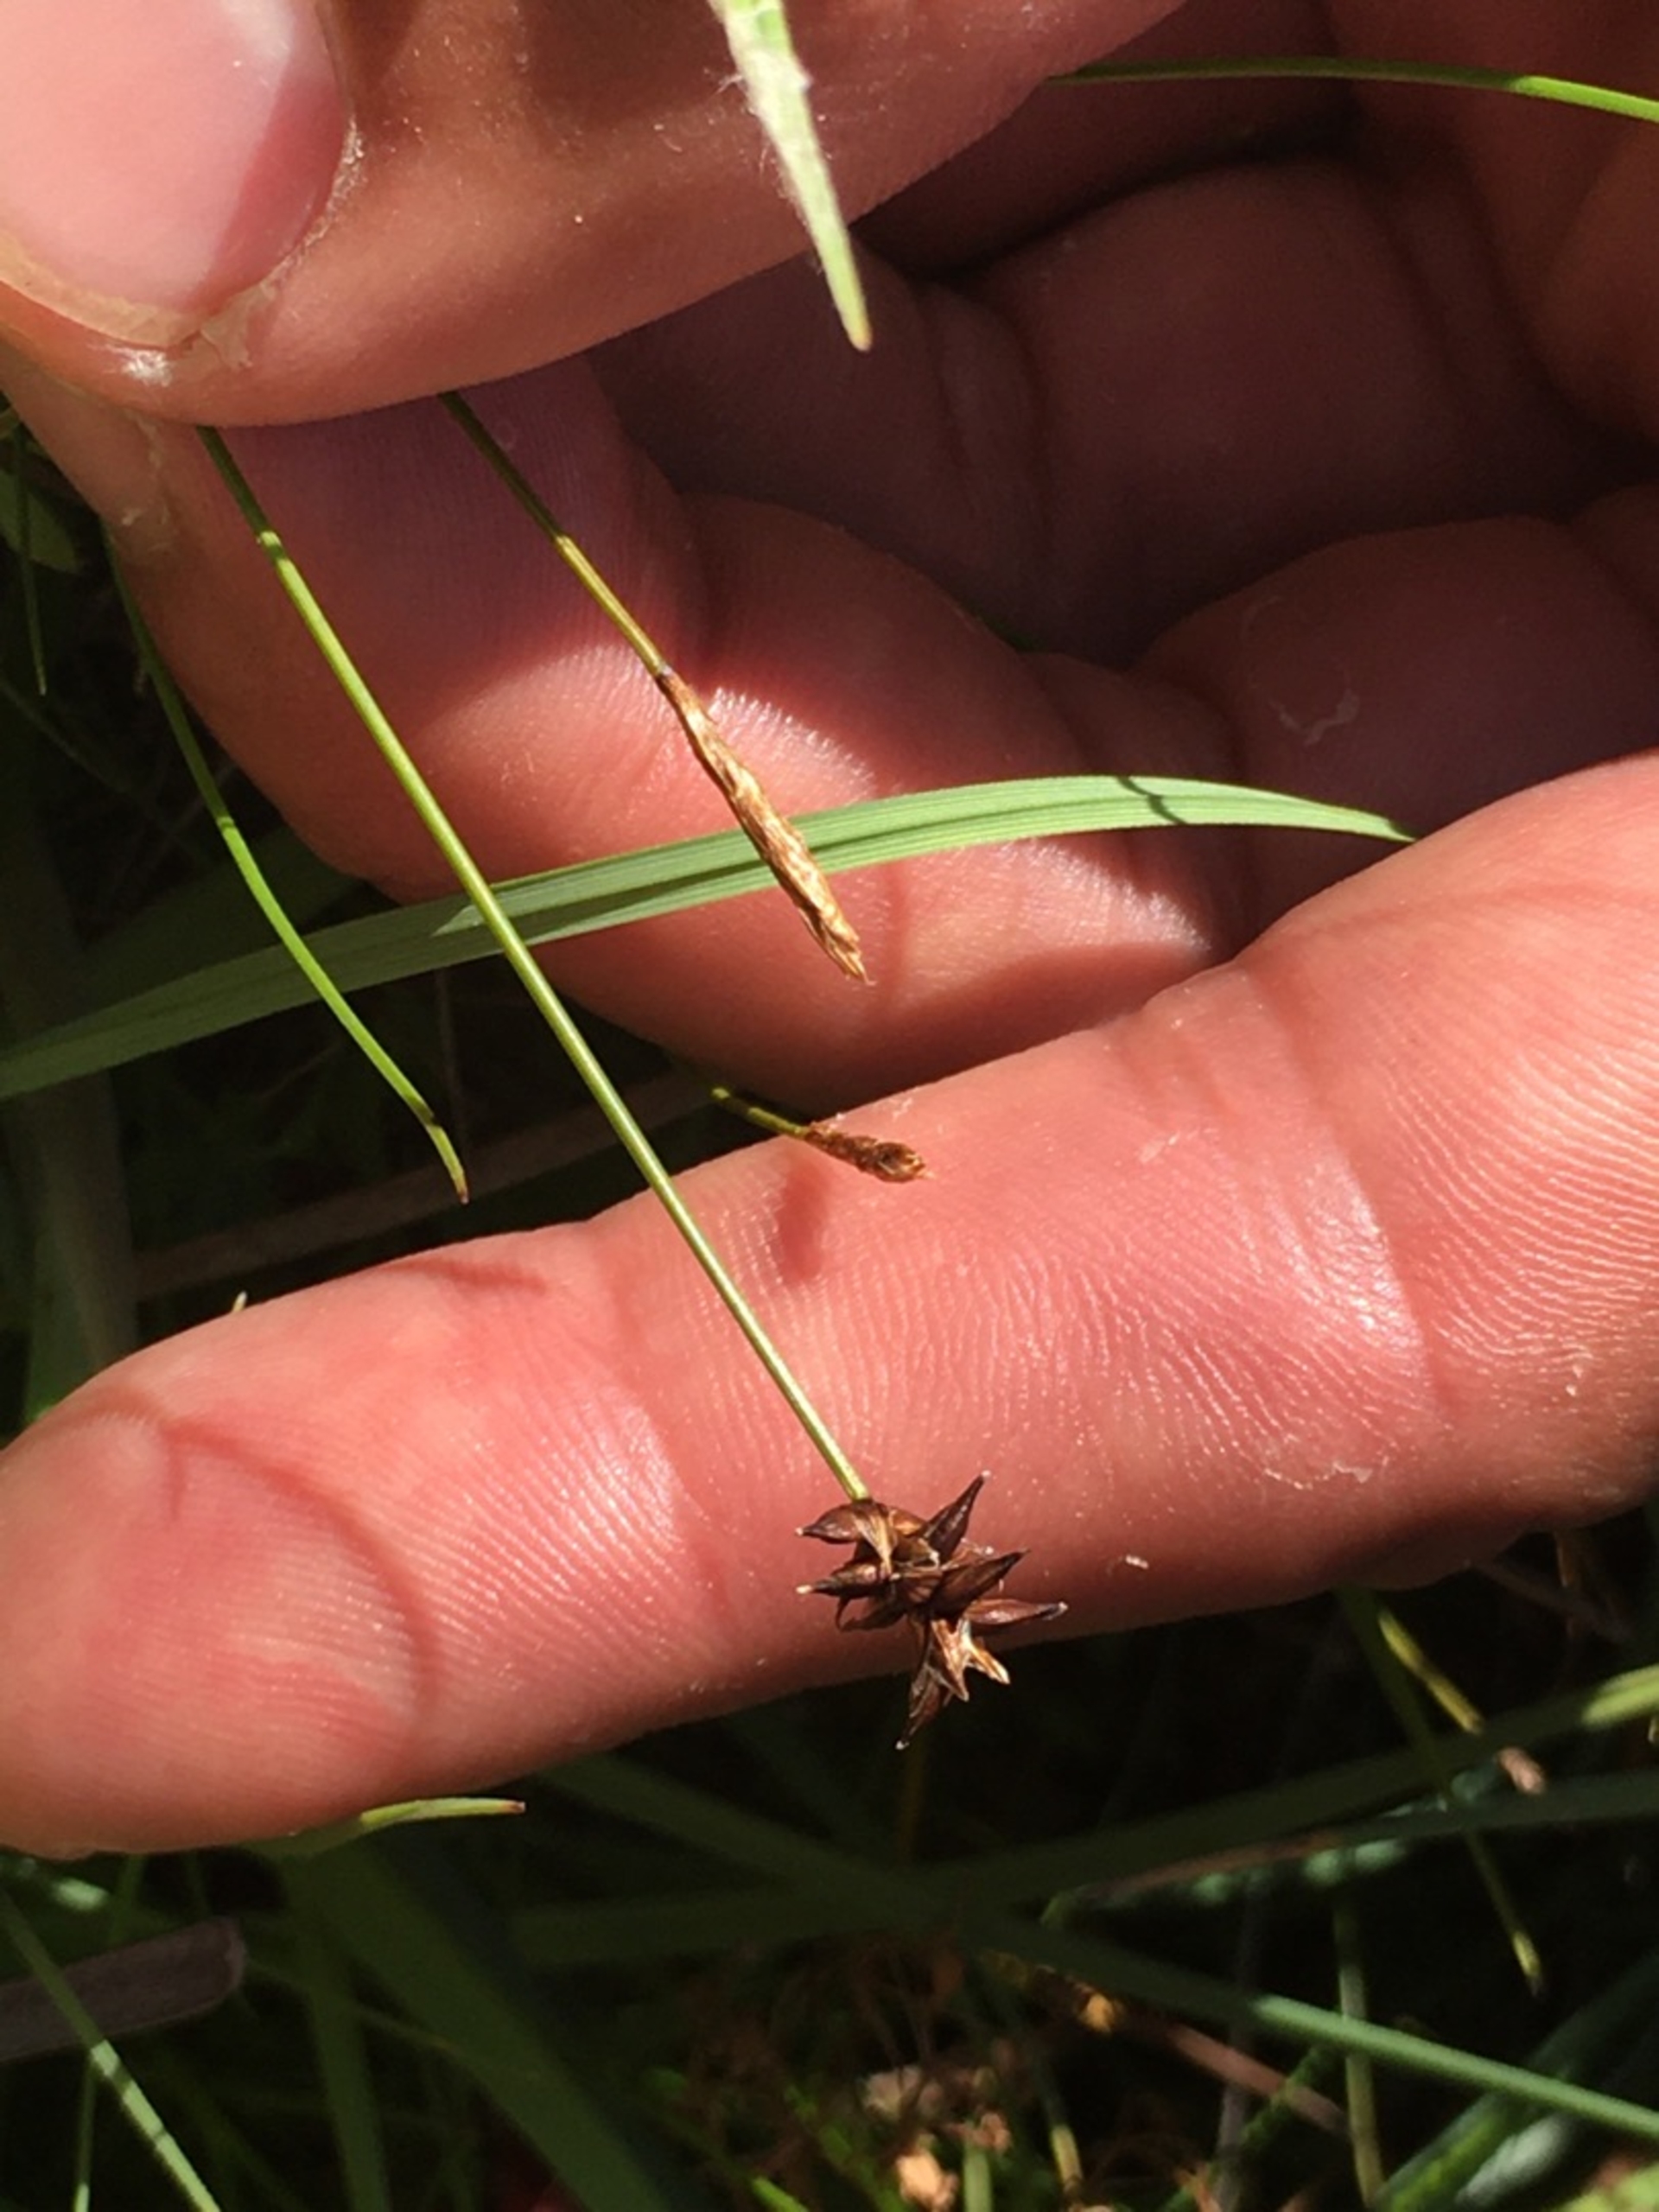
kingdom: Plantae
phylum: Tracheophyta
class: Liliopsida
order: Poales
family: Cyperaceae
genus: Carex
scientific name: Carex dioica
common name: Tvebo star
